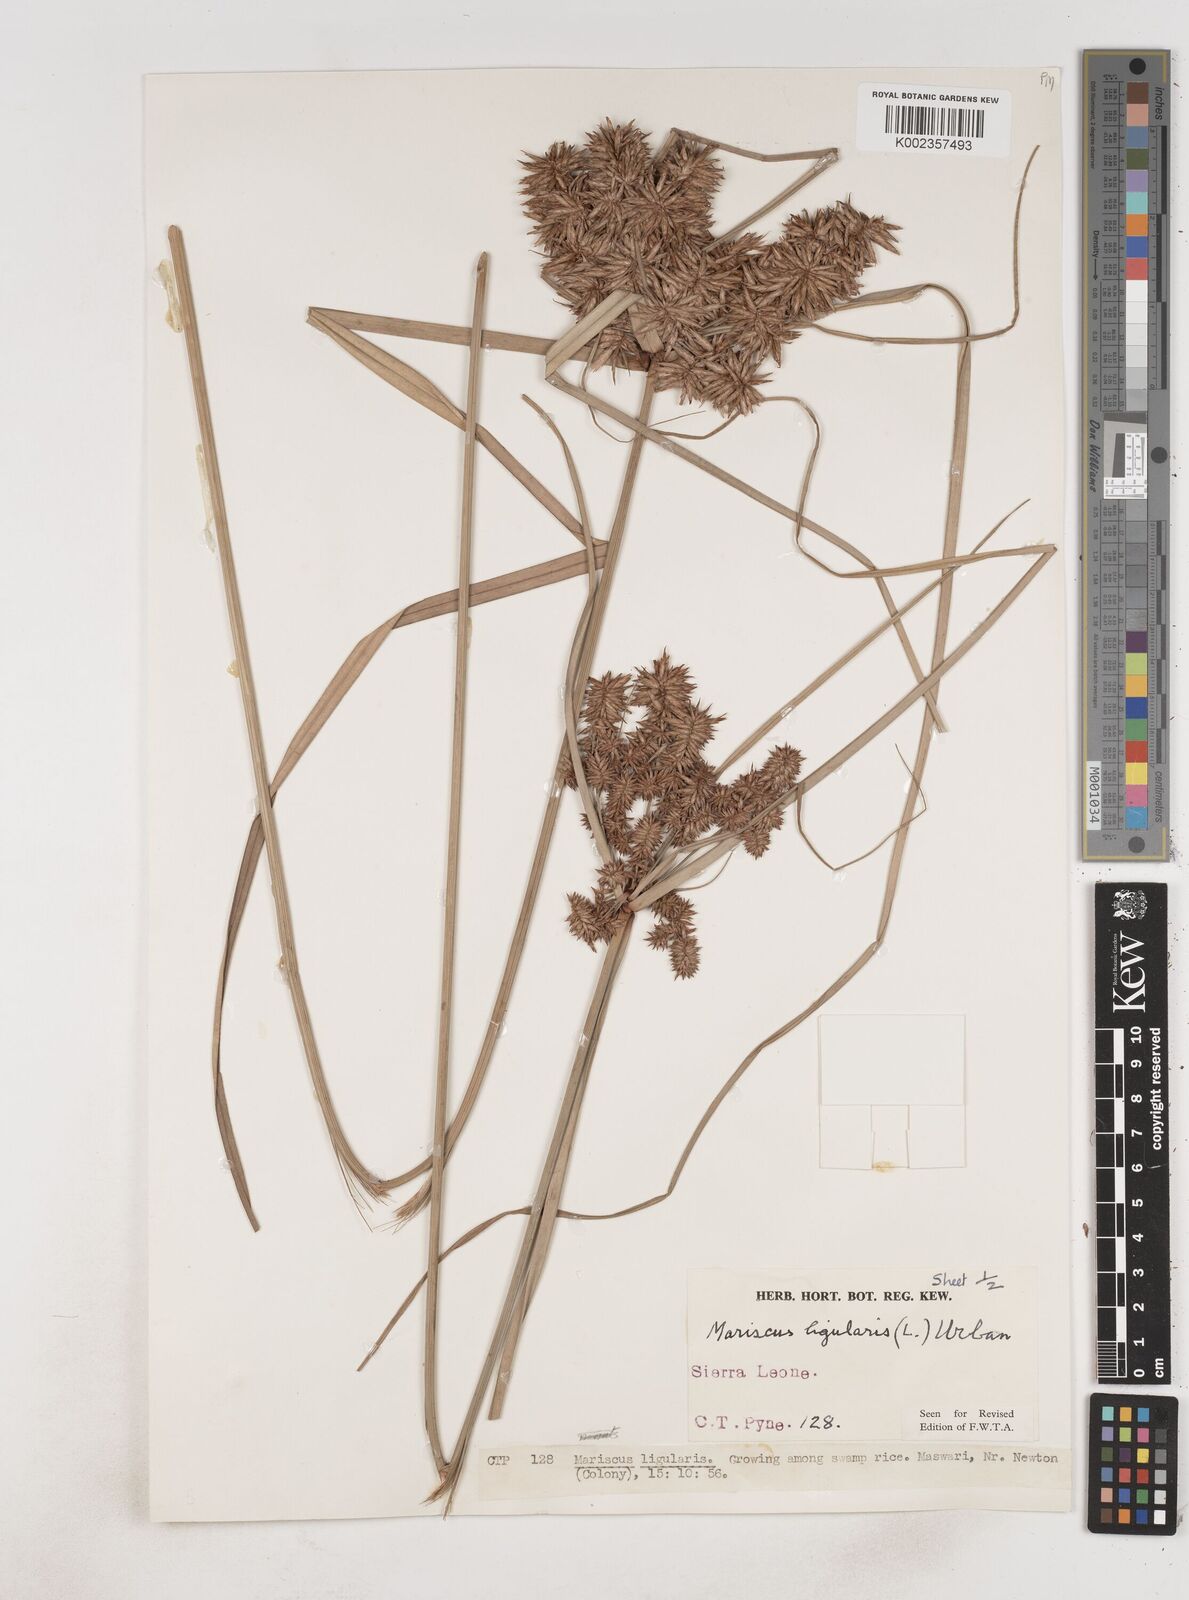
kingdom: Plantae
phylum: Tracheophyta
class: Liliopsida
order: Poales
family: Cyperaceae
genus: Cyperus
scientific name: Cyperus ligularis
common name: Swamp flat sedge
